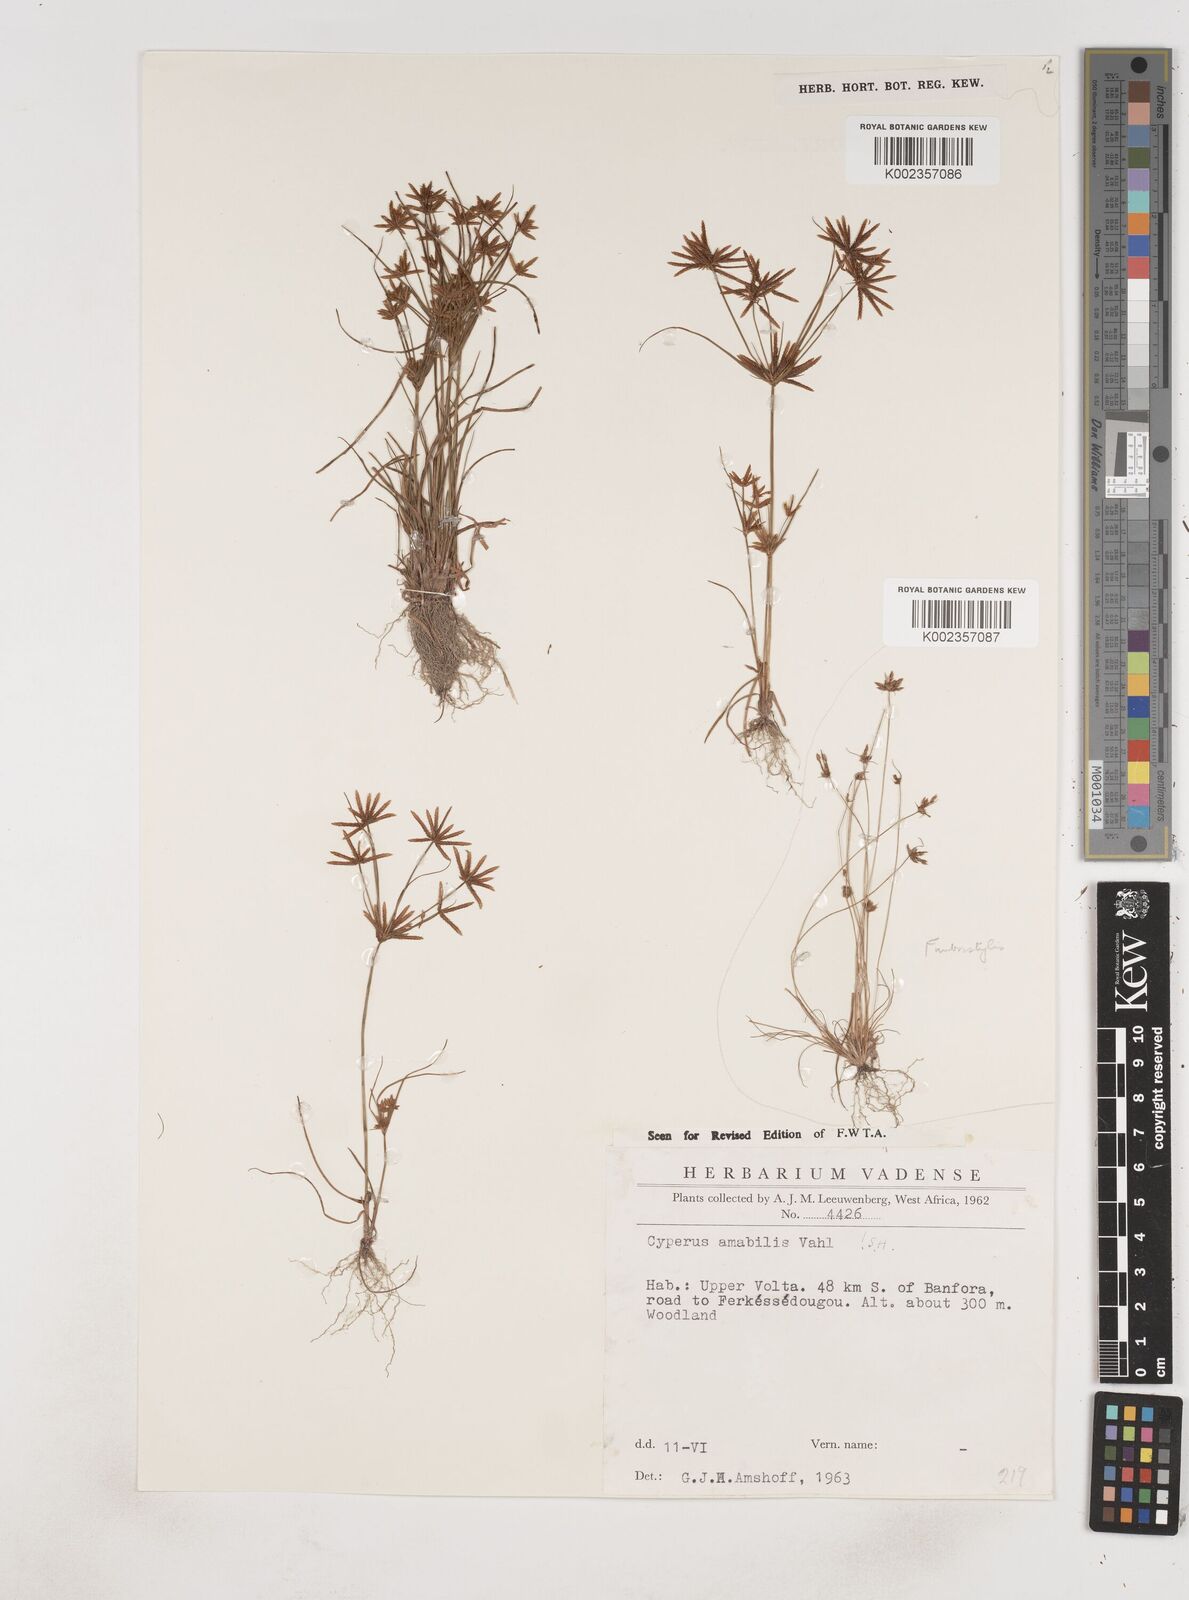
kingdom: Plantae
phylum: Tracheophyta
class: Liliopsida
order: Poales
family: Cyperaceae
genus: Cyperus
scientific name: Cyperus amabilis
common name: Foothill flat sedge
